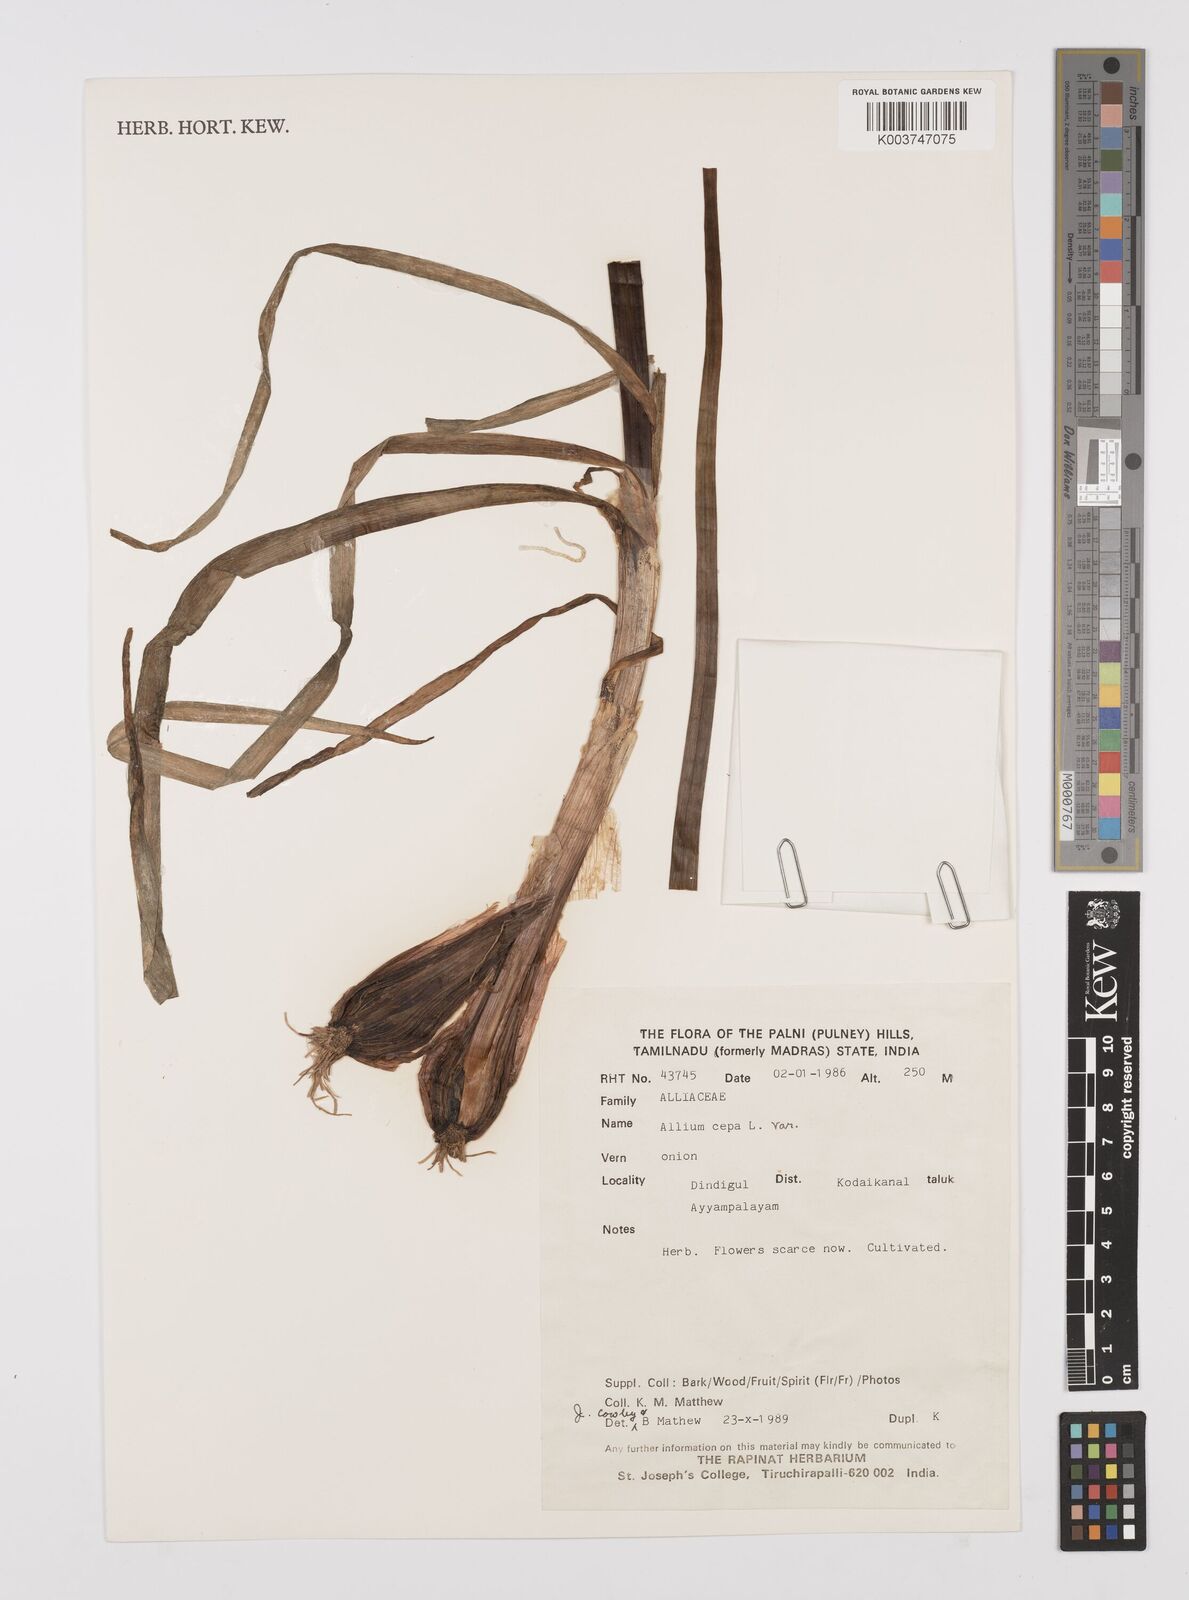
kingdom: Plantae
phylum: Tracheophyta
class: Liliopsida
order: Asparagales
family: Amaryllidaceae
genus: Allium
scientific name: Allium cepa
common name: Onion
